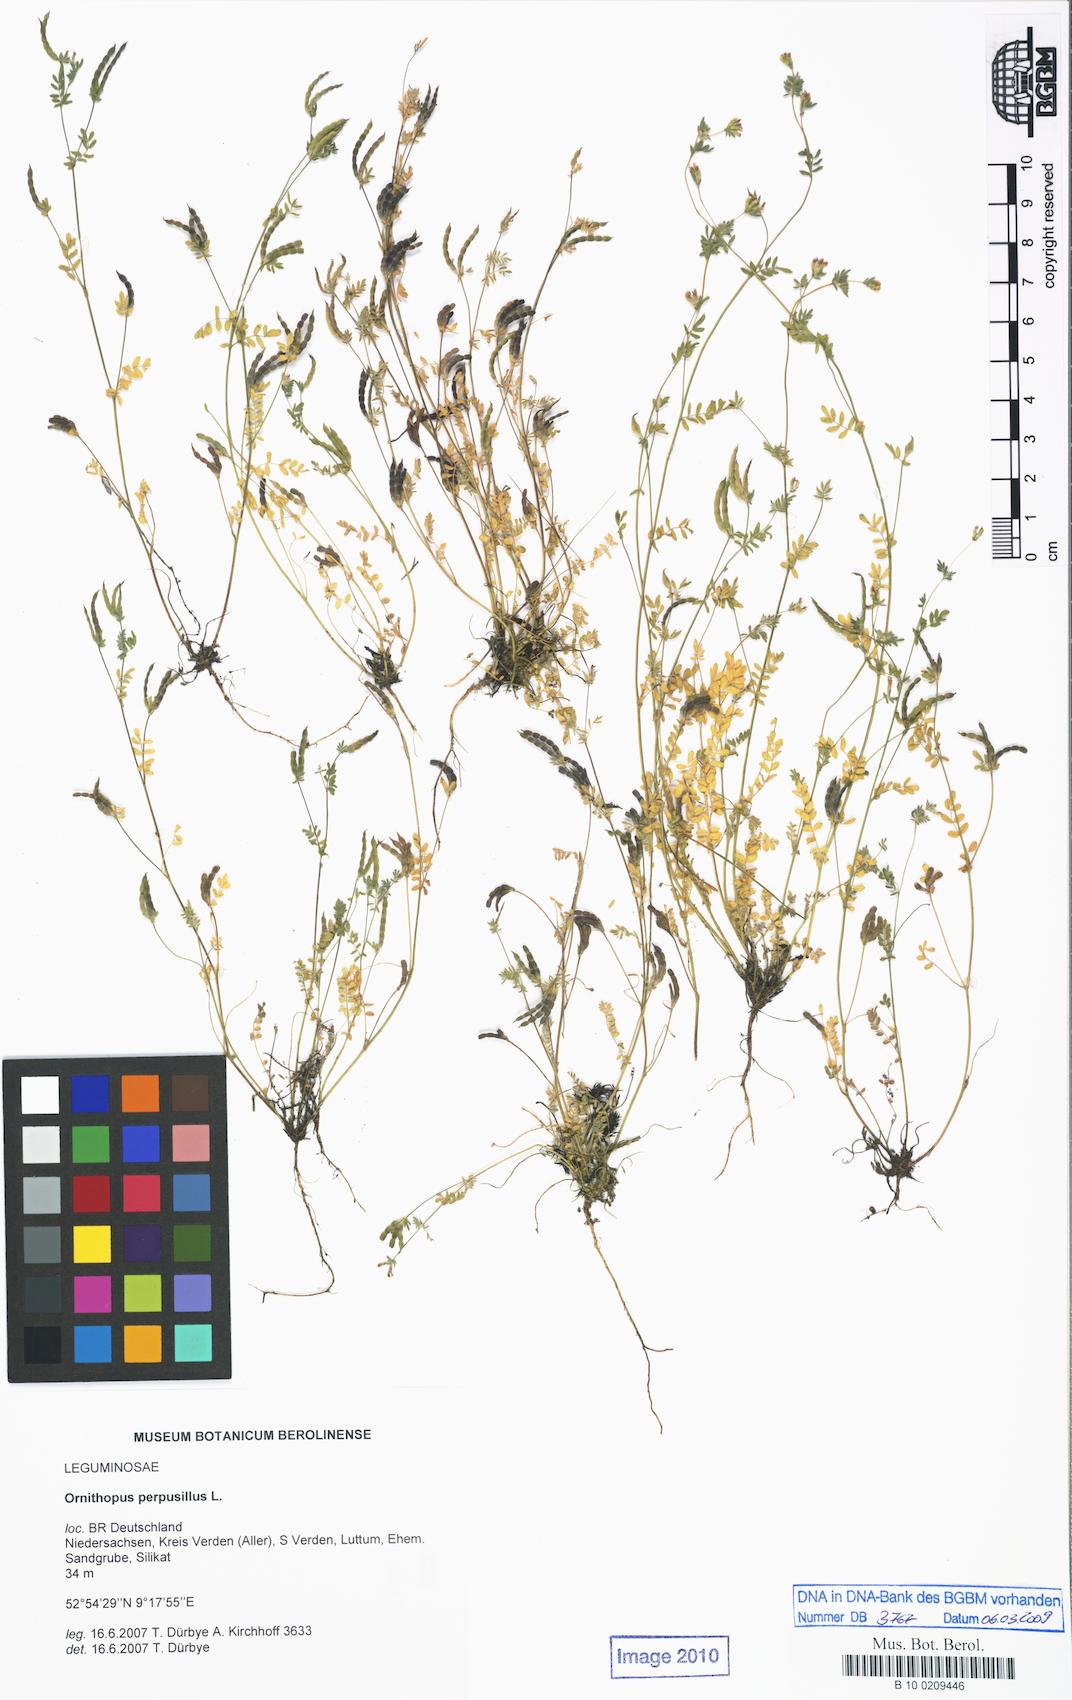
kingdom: Plantae
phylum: Tracheophyta
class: Magnoliopsida
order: Fabales
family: Fabaceae
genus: Ornithopus
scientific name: Ornithopus perpusillus
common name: Bird's-foot
